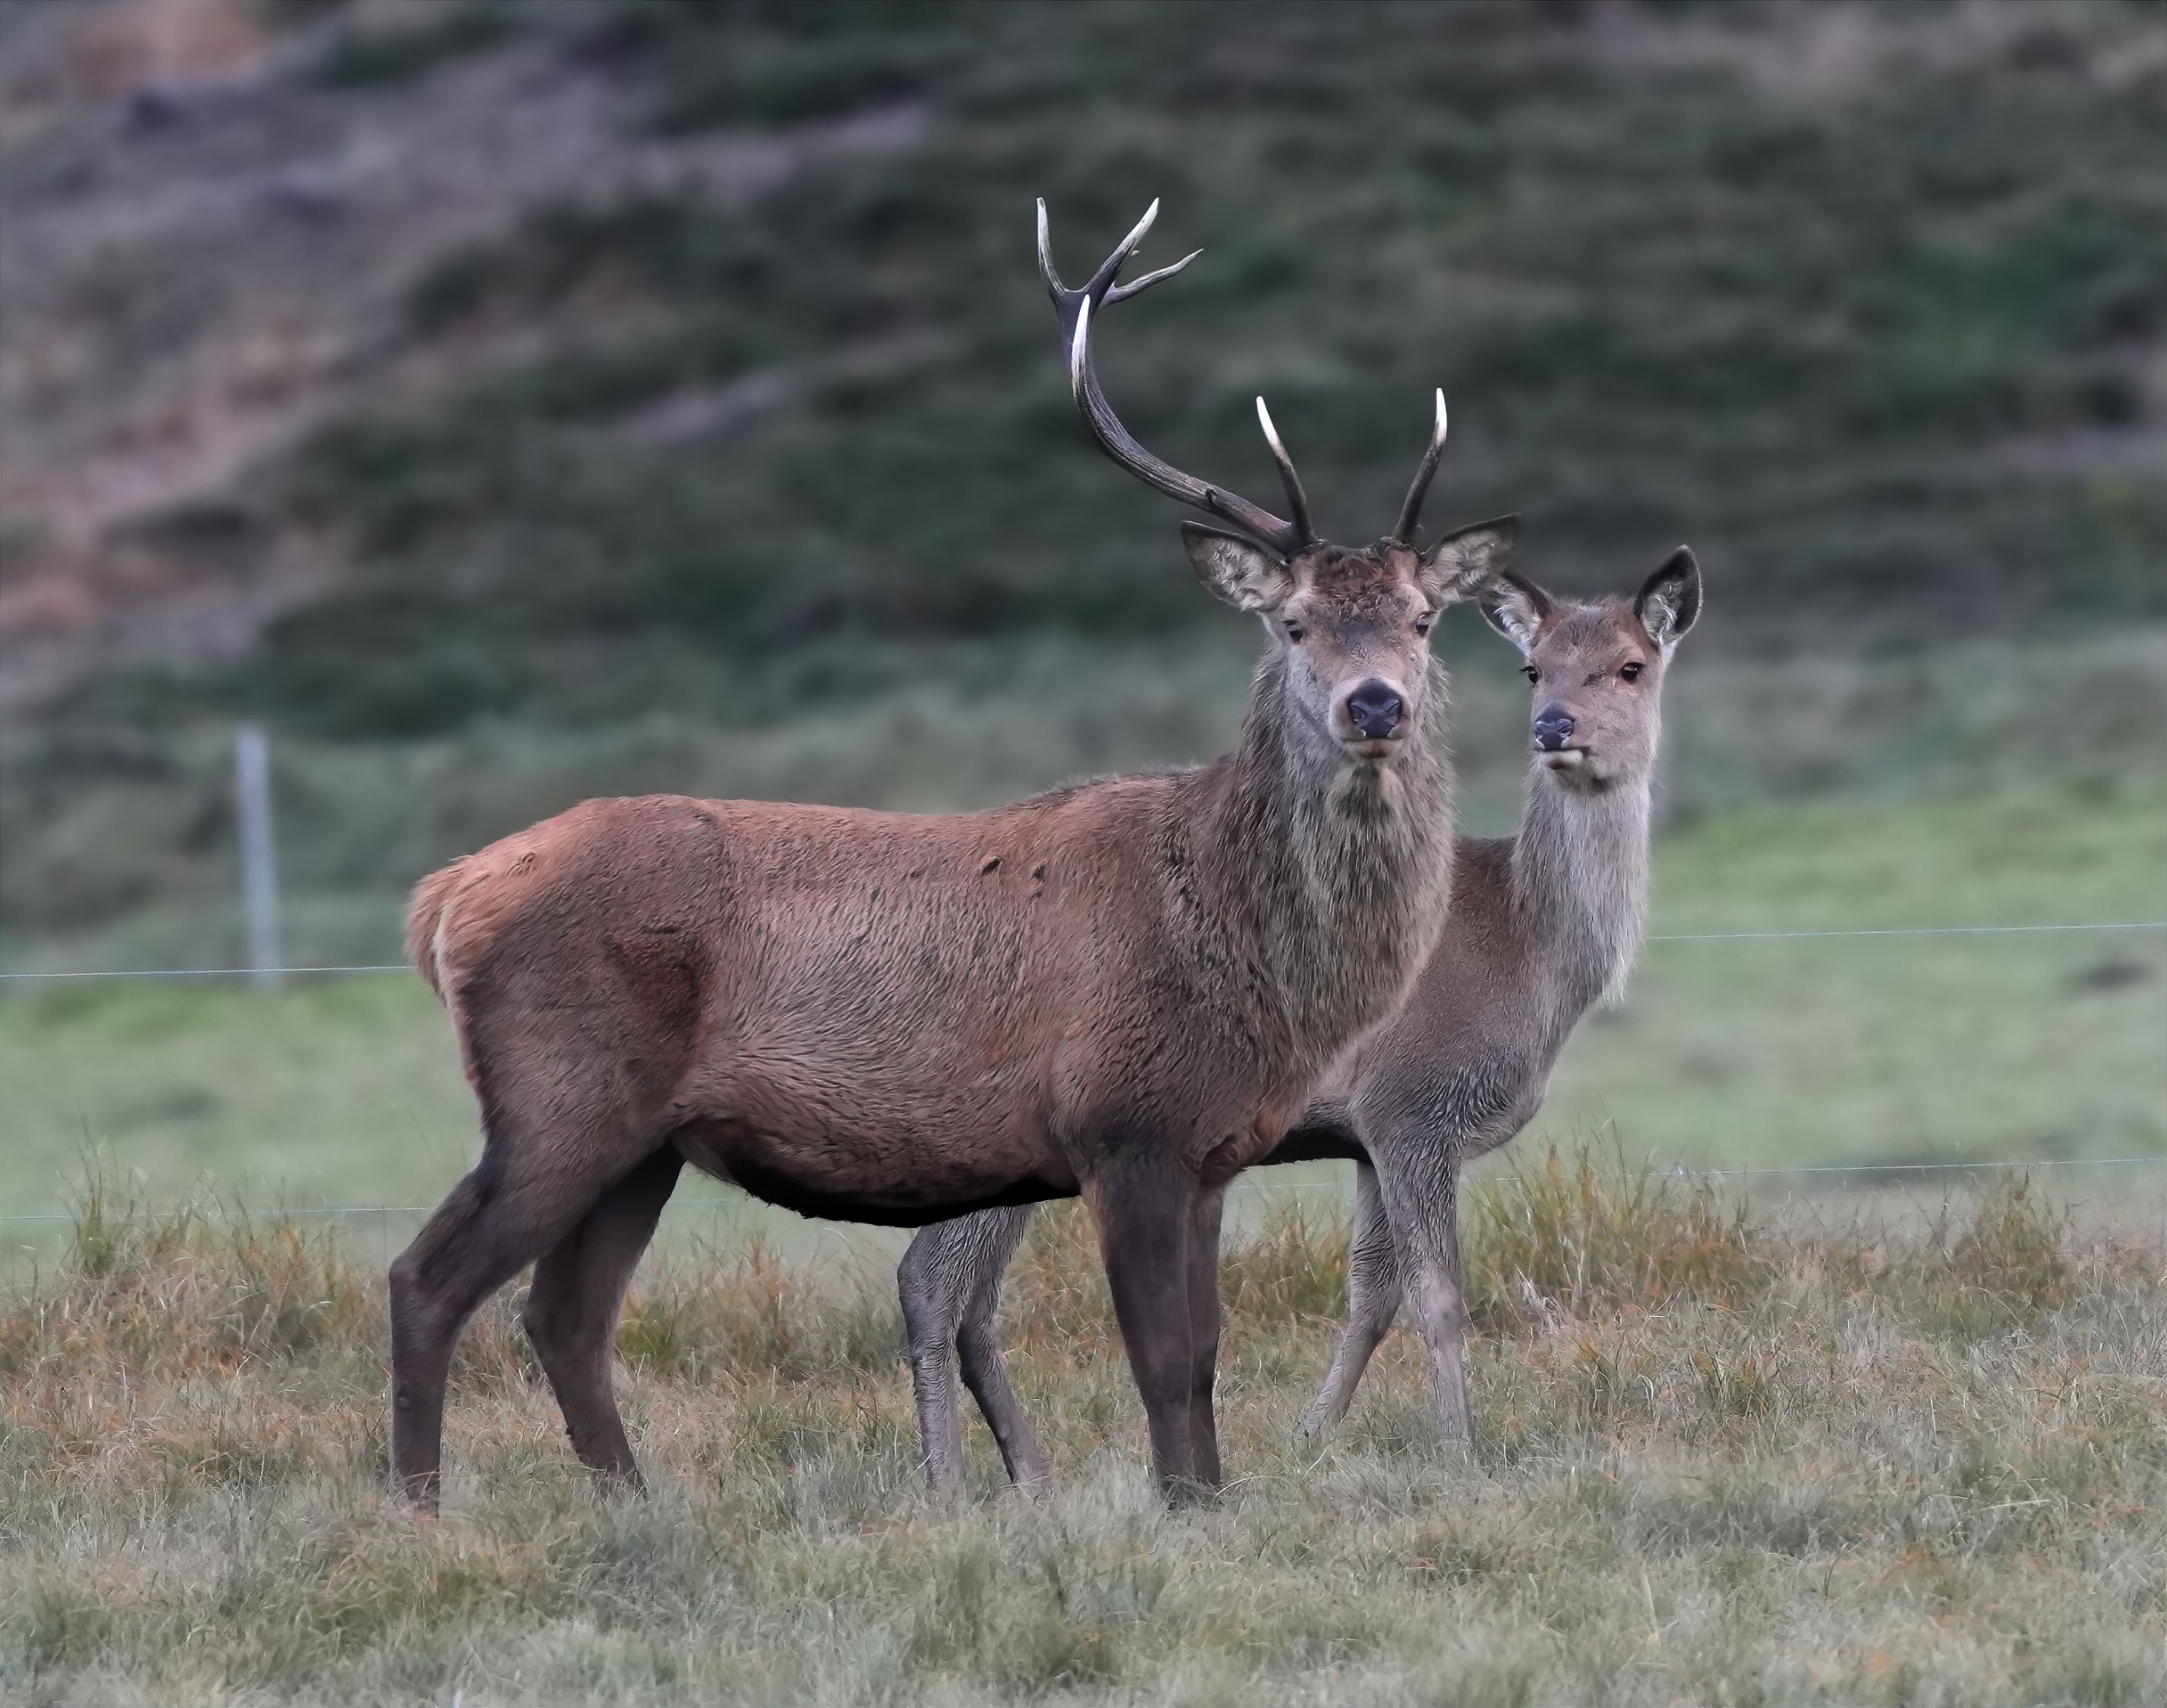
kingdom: Animalia
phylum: Chordata
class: Mammalia
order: Artiodactyla
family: Cervidae
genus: Cervus
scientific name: Cervus elaphus
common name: Krondyr
